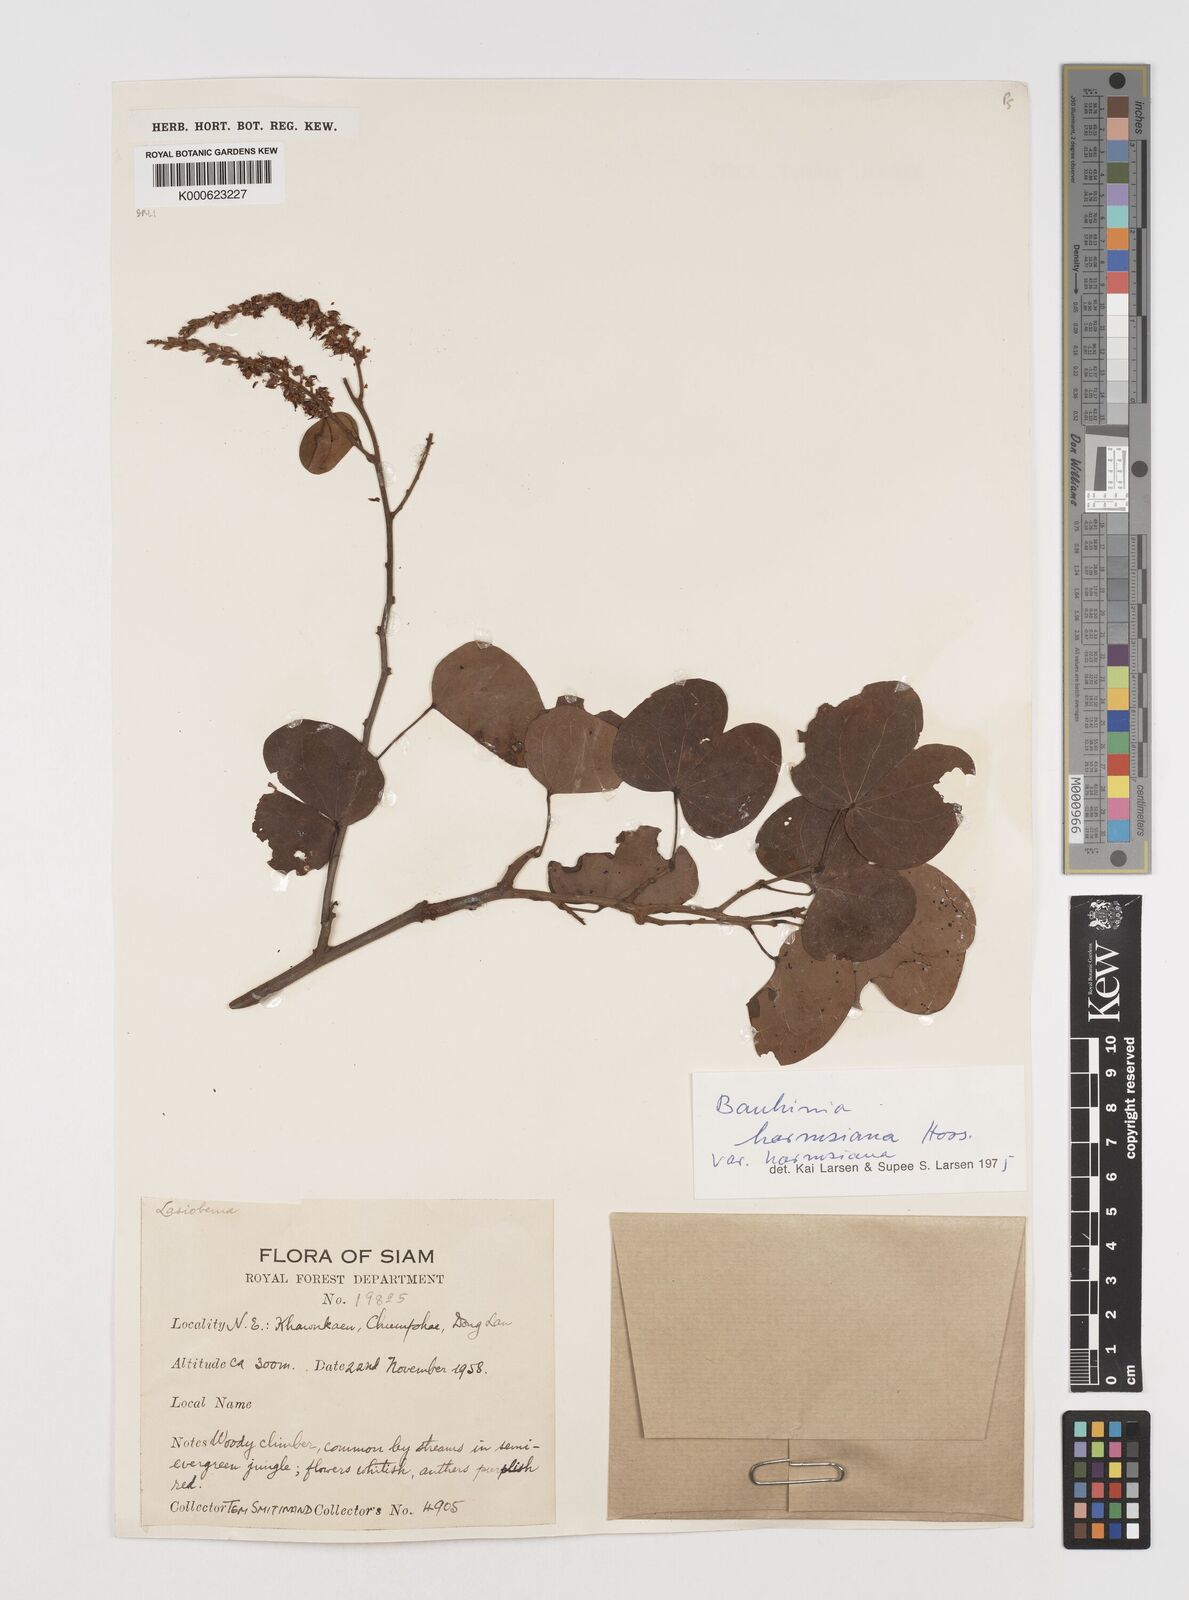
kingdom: Plantae
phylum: Tracheophyta
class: Magnoliopsida
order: Fabales
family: Fabaceae
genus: Bauhinia
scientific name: Bauhinia
